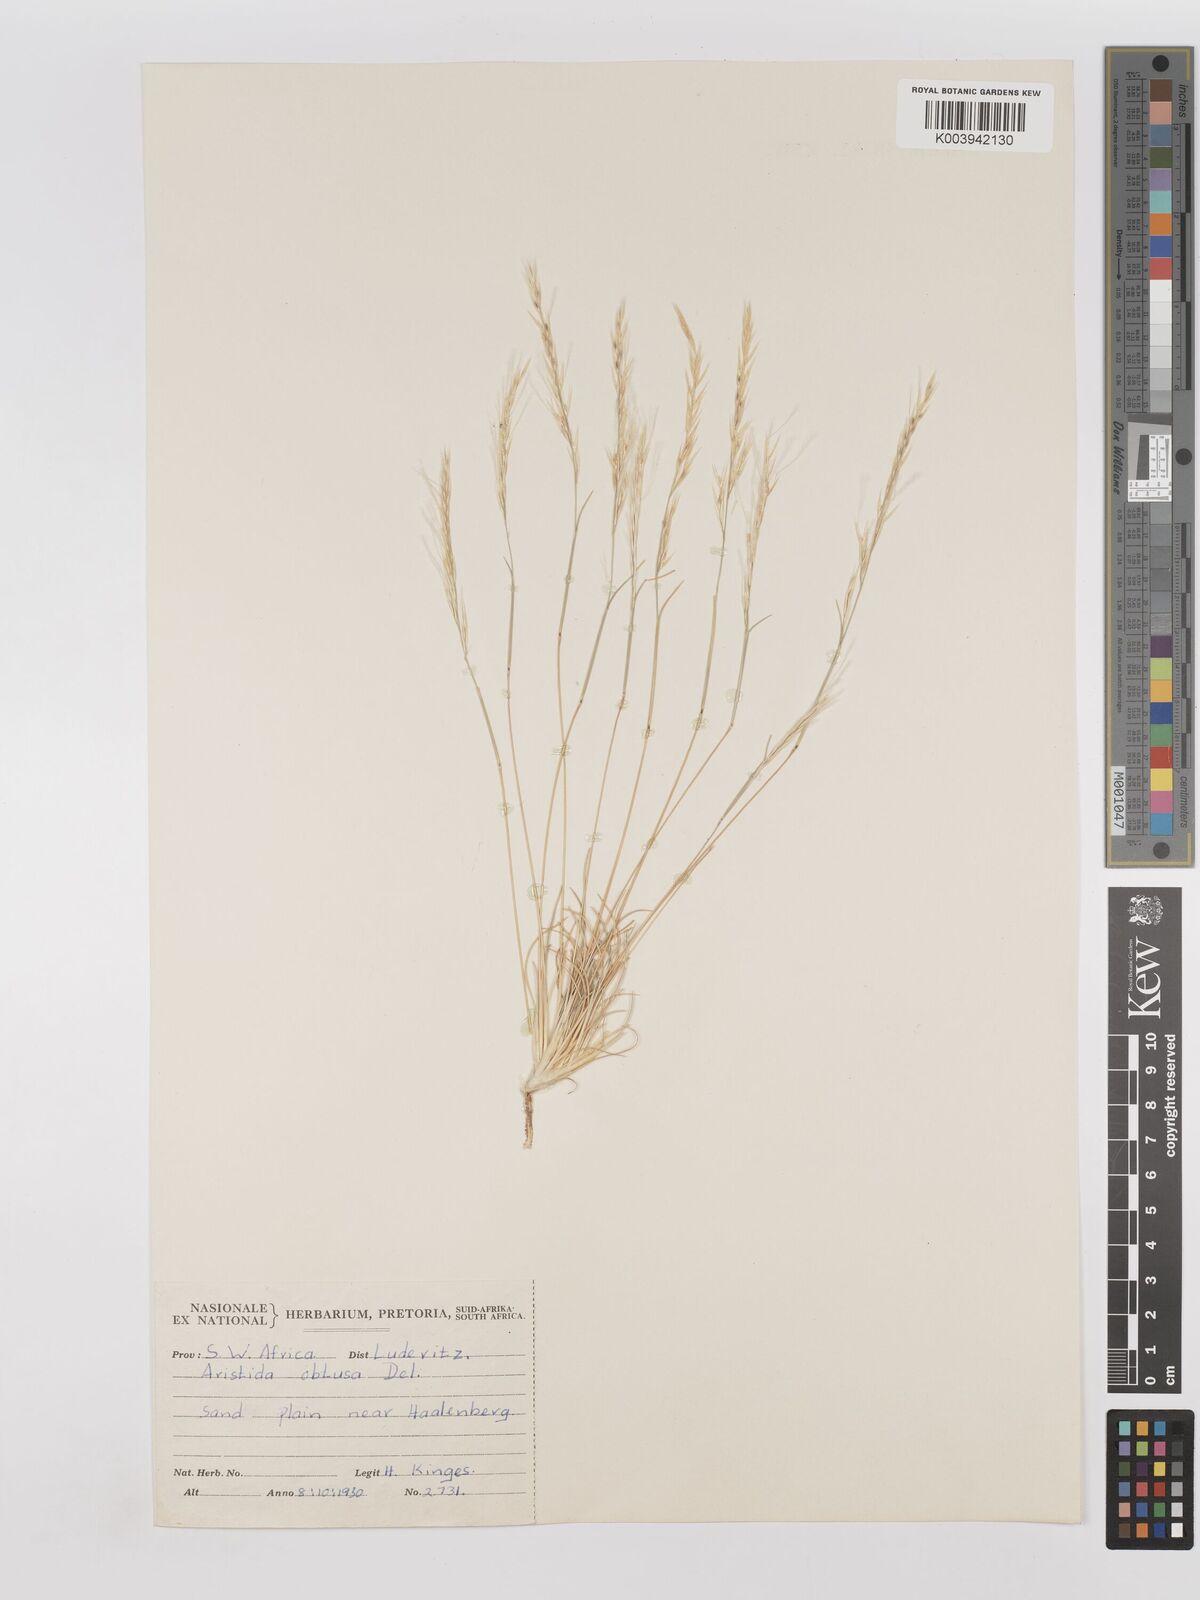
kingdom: Plantae
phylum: Tracheophyta
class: Liliopsida
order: Poales
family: Poaceae
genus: Stipagrostis
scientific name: Stipagrostis obtusa
